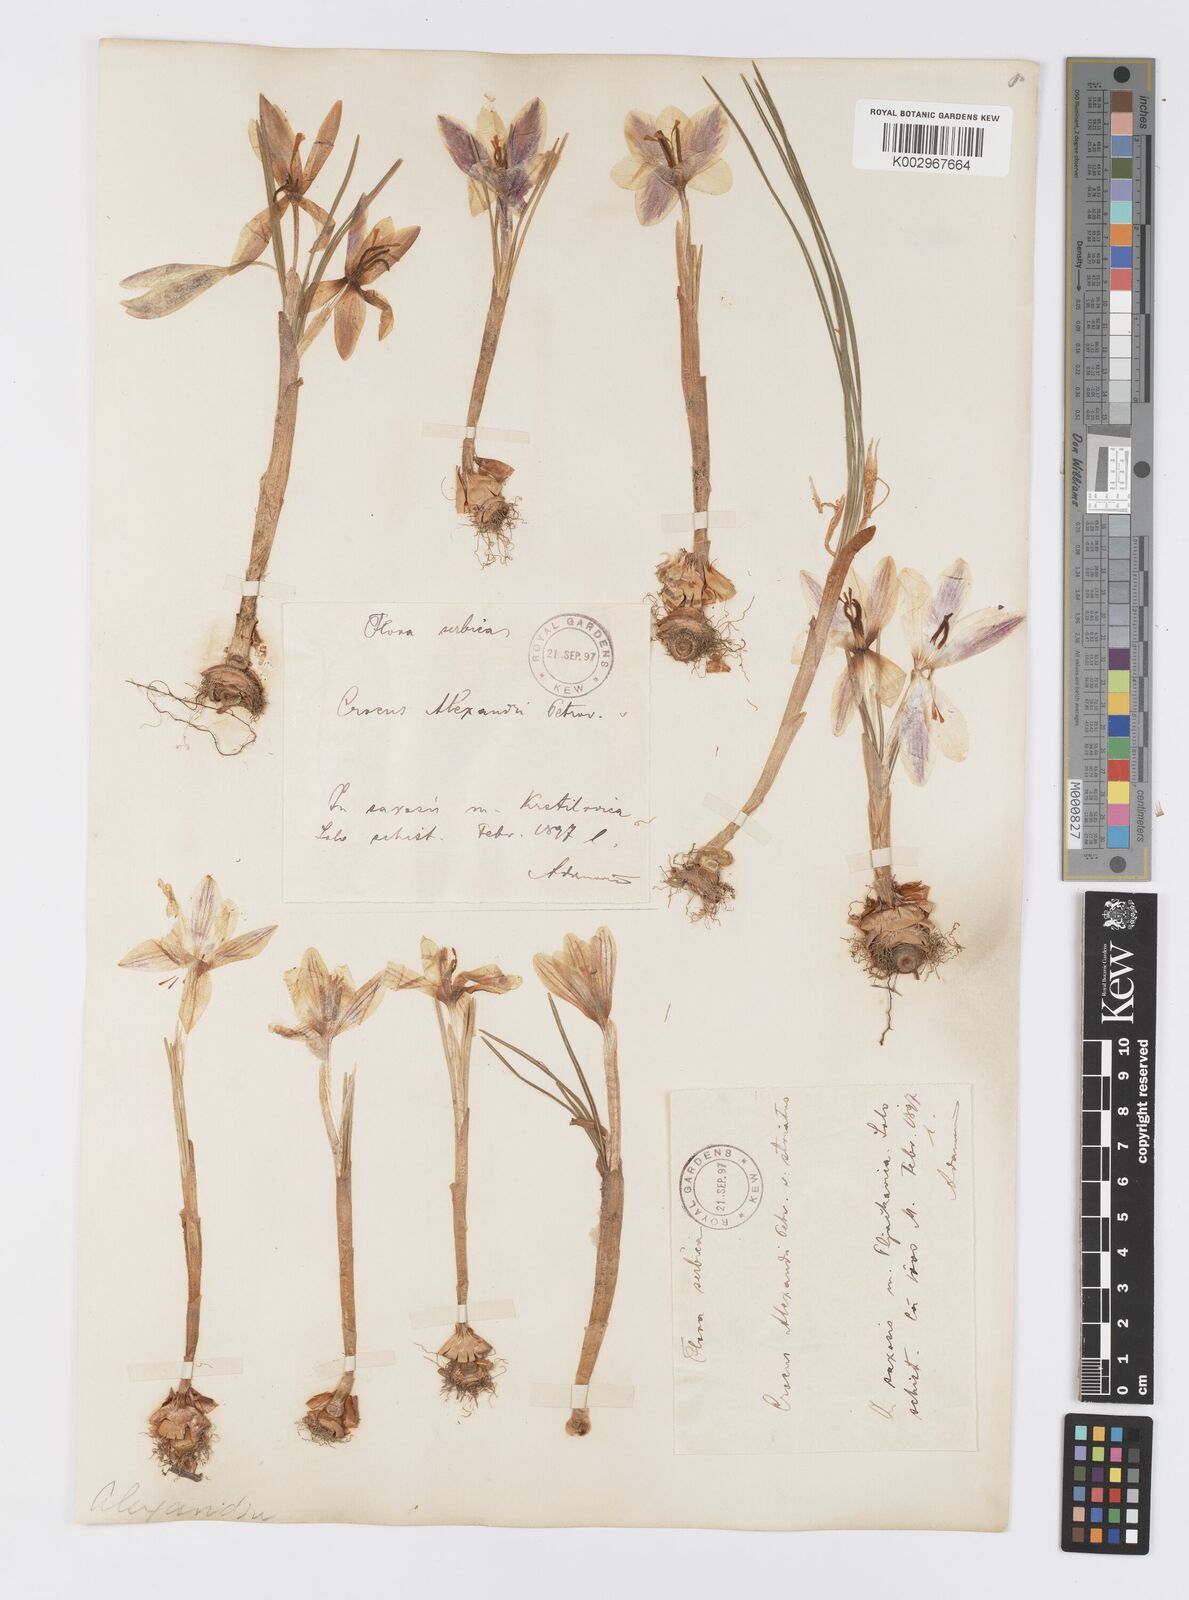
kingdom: Plantae
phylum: Tracheophyta
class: Liliopsida
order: Asparagales
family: Iridaceae
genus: Crocus
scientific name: Crocus alexandri
